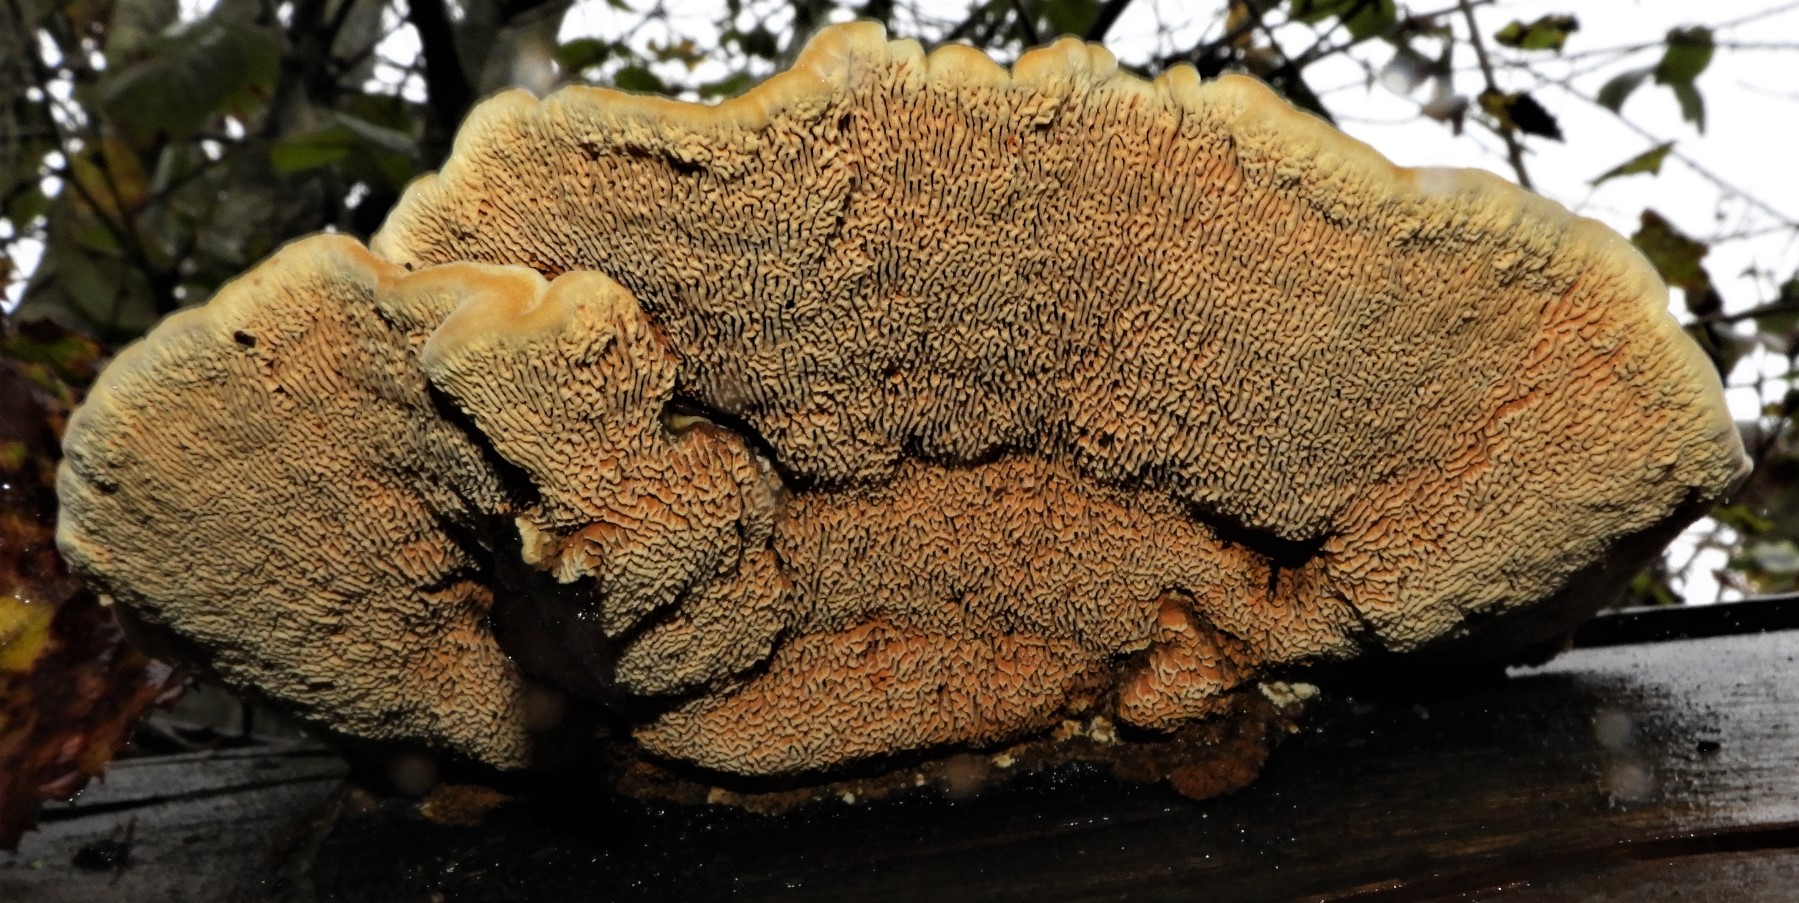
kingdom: Fungi
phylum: Basidiomycota
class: Agaricomycetes
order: Gloeophyllales
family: Gloeophyllaceae
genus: Gloeophyllum
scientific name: Gloeophyllum sepiarium
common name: fyrre-korkhat
